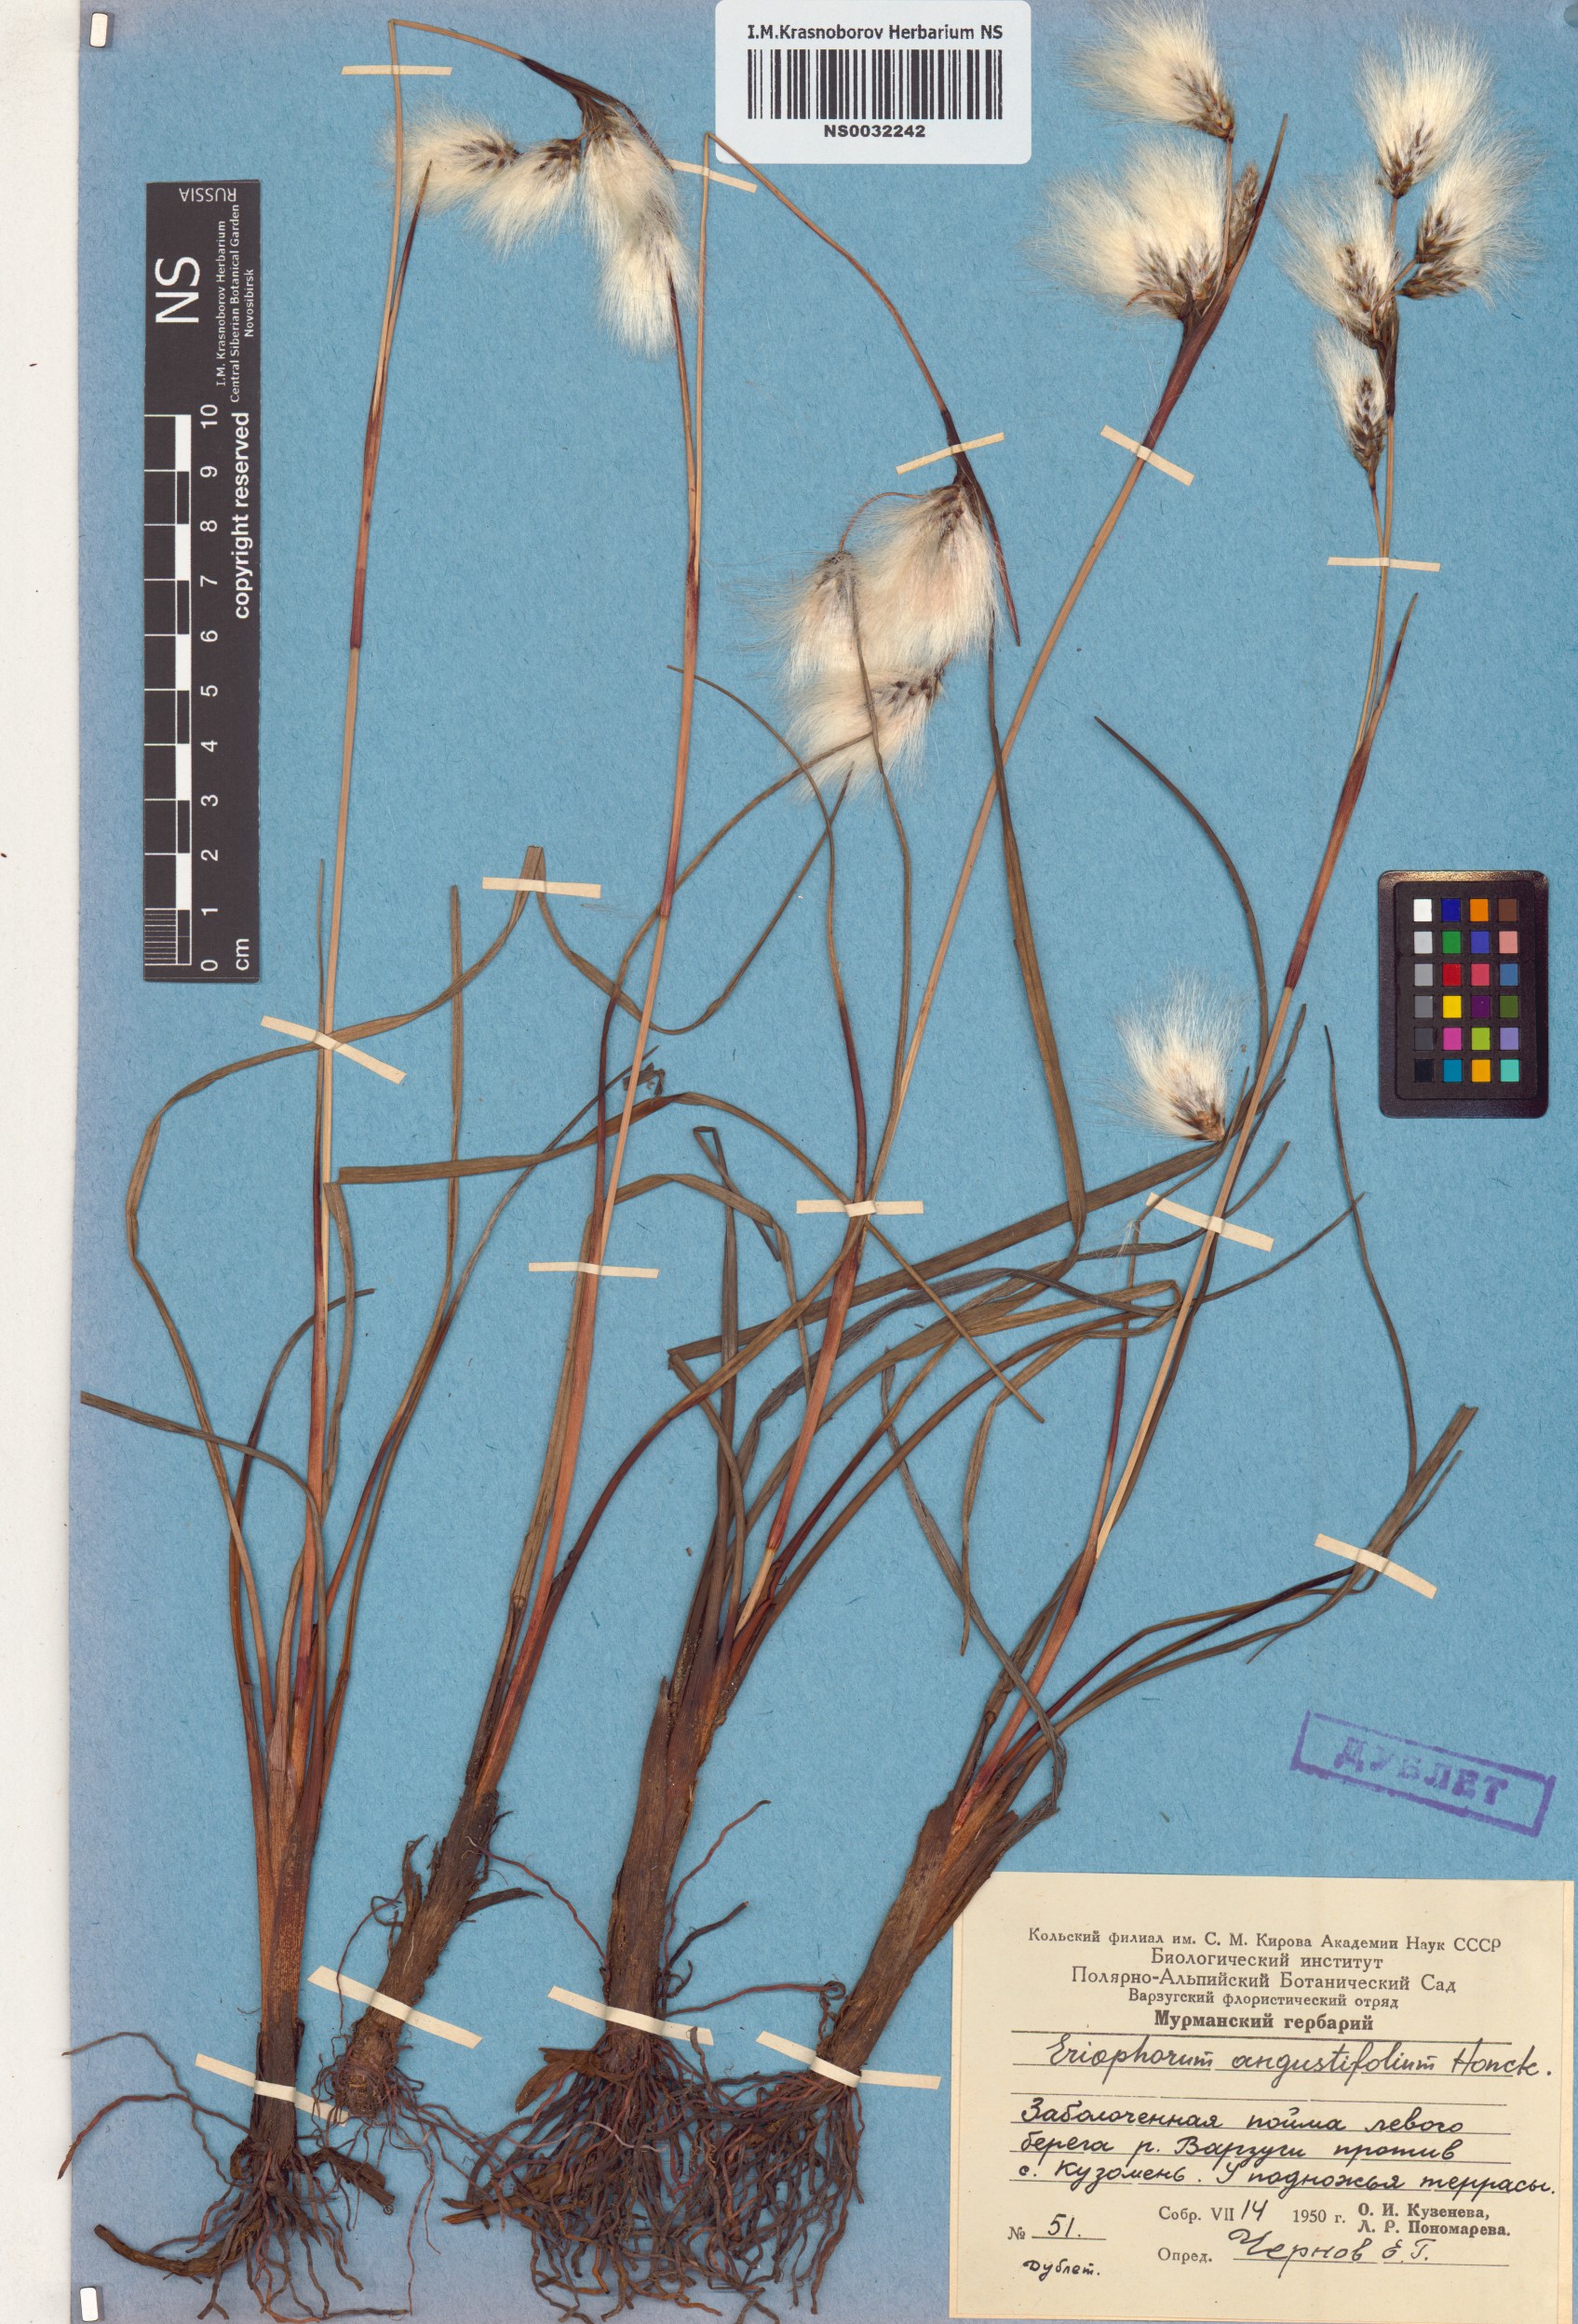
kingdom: Plantae
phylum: Tracheophyta
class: Liliopsida
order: Poales
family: Cyperaceae
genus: Eriophorum
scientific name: Eriophorum angustifolium
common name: Common cottongrass
